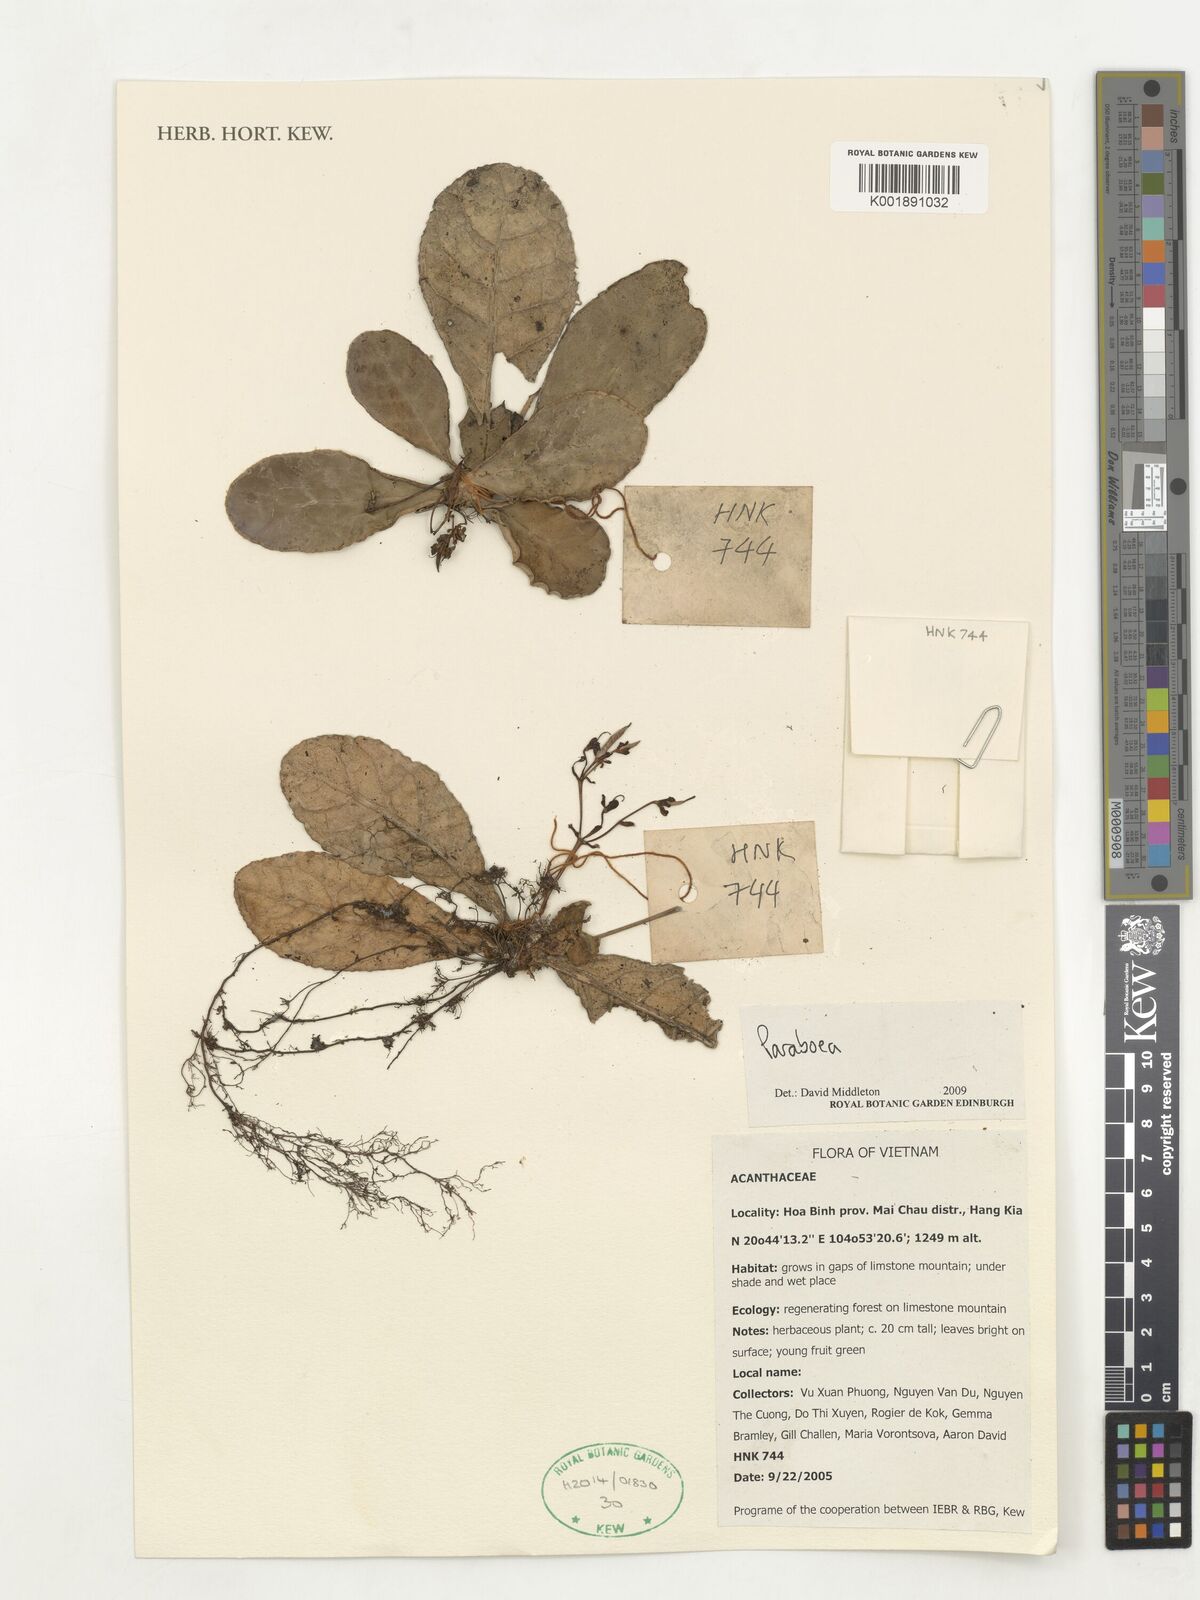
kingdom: Plantae
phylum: Tracheophyta
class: Magnoliopsida
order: Lamiales
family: Gesneriaceae
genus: Paraboea
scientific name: Paraboea
